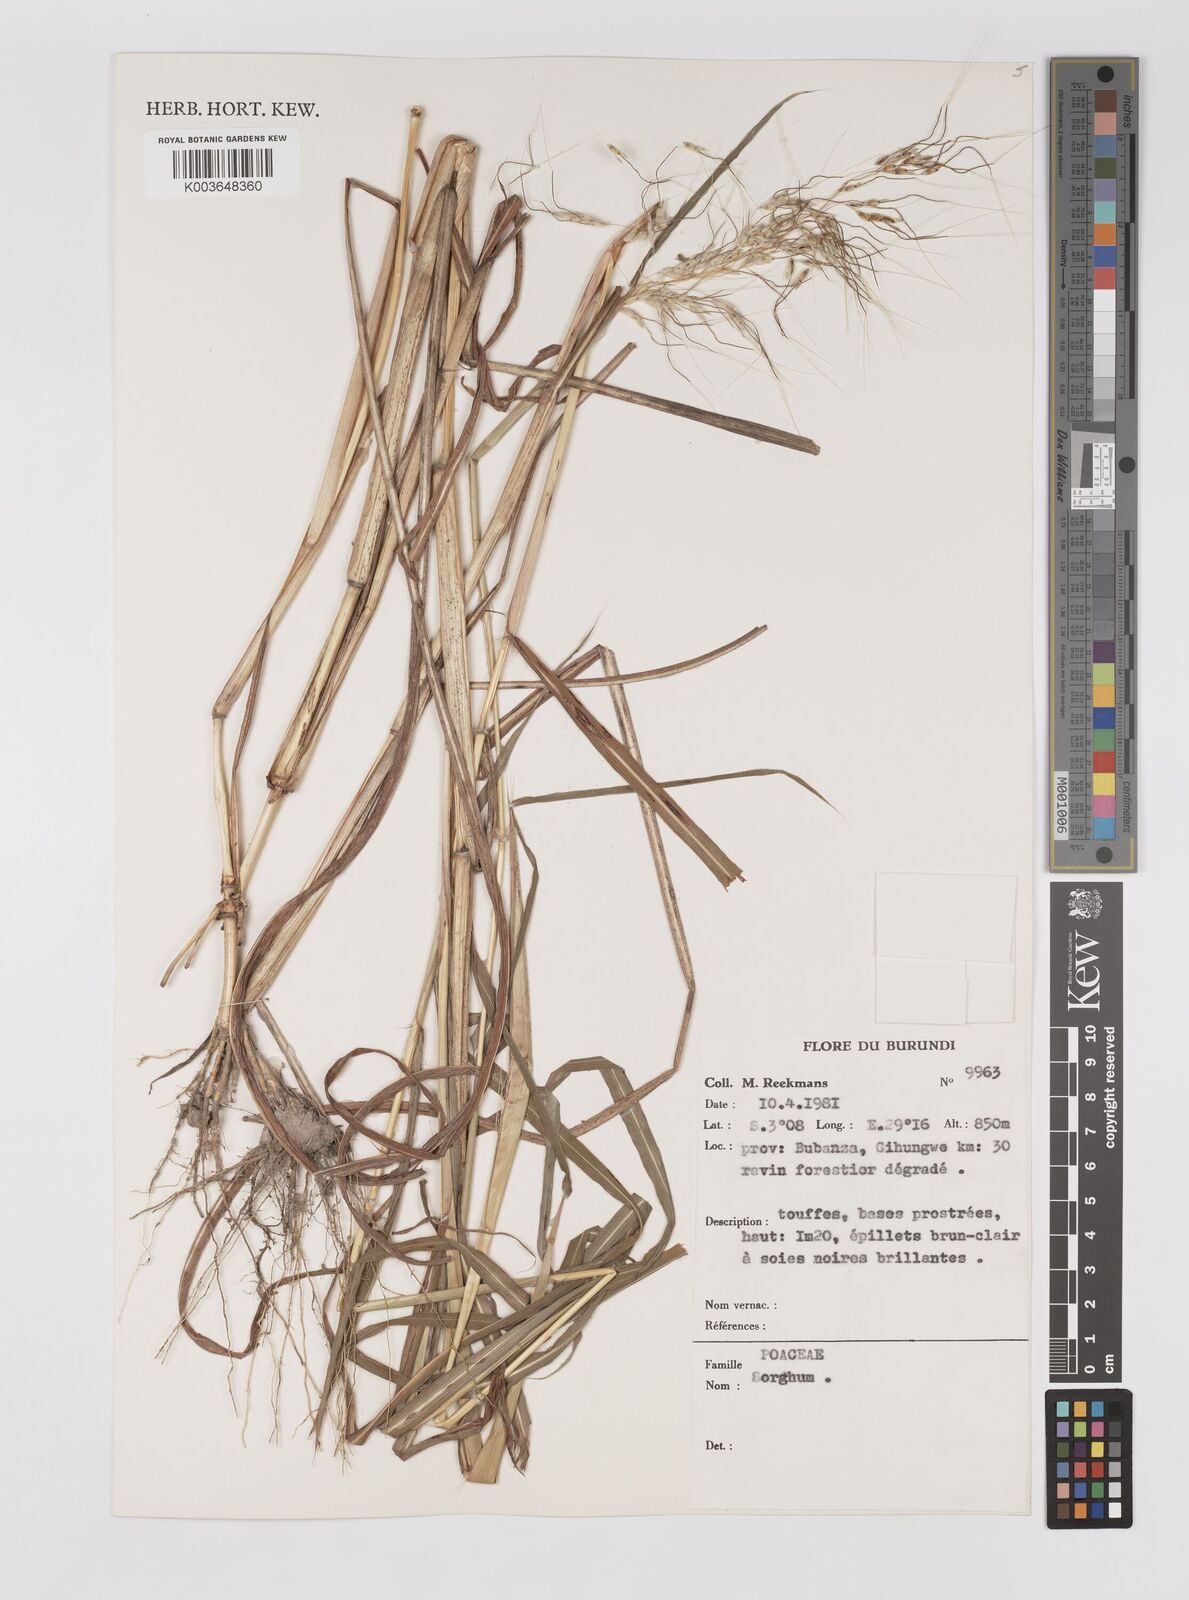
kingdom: Plantae
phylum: Tracheophyta
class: Liliopsida
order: Poales
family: Poaceae
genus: Sarga
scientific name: Sarga versicolor
